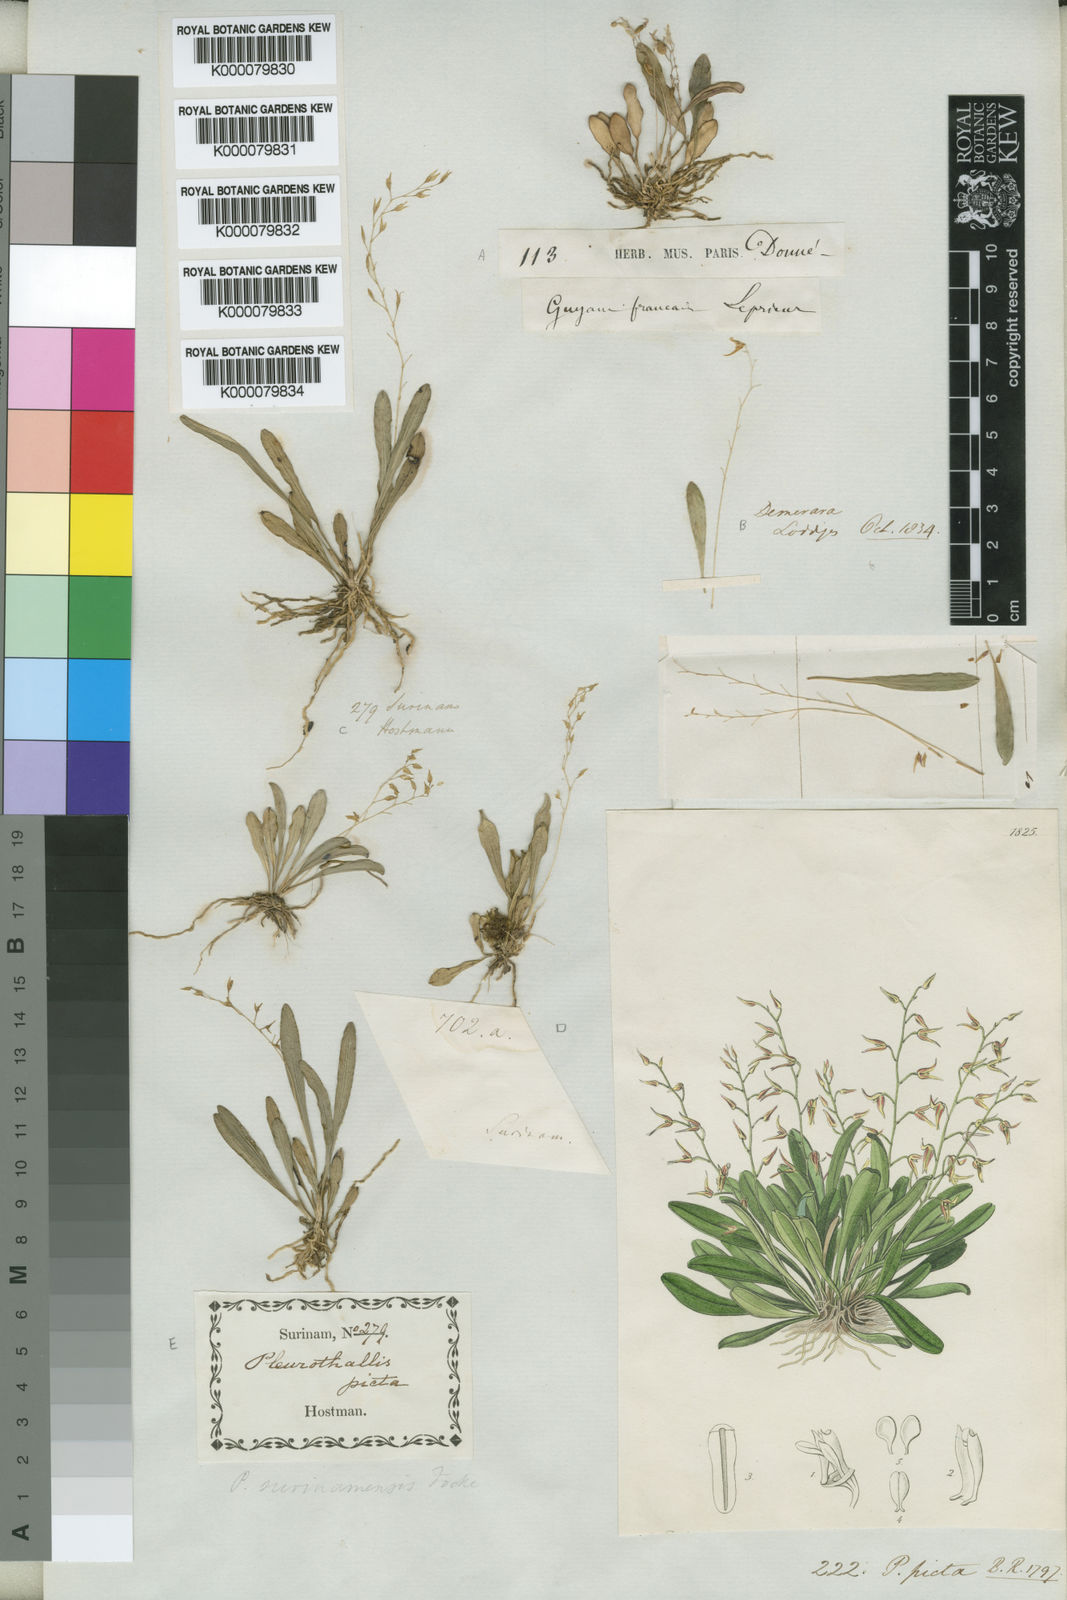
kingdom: Plantae
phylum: Tracheophyta
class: Liliopsida
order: Asparagales
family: Orchidaceae
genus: Specklinia
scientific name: Specklinia picta
